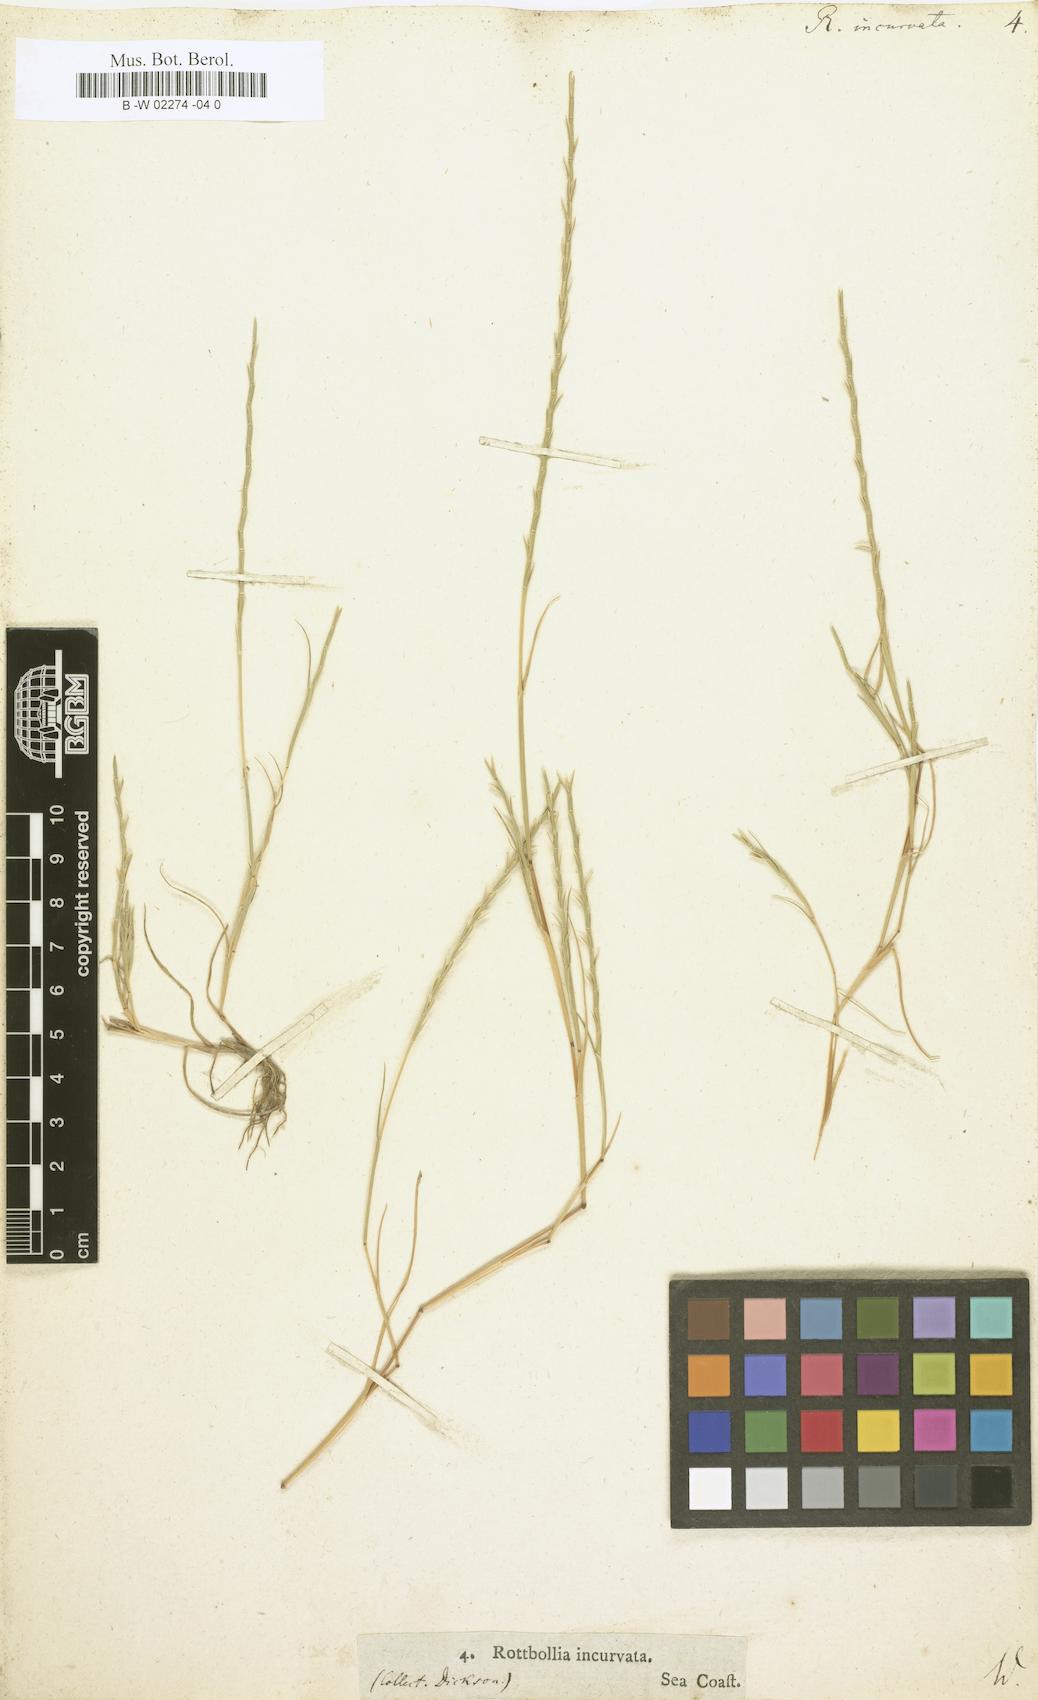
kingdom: Plantae
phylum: Tracheophyta
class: Liliopsida
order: Poales
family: Poaceae
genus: Rottboellia
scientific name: Rottboellia incurvata
